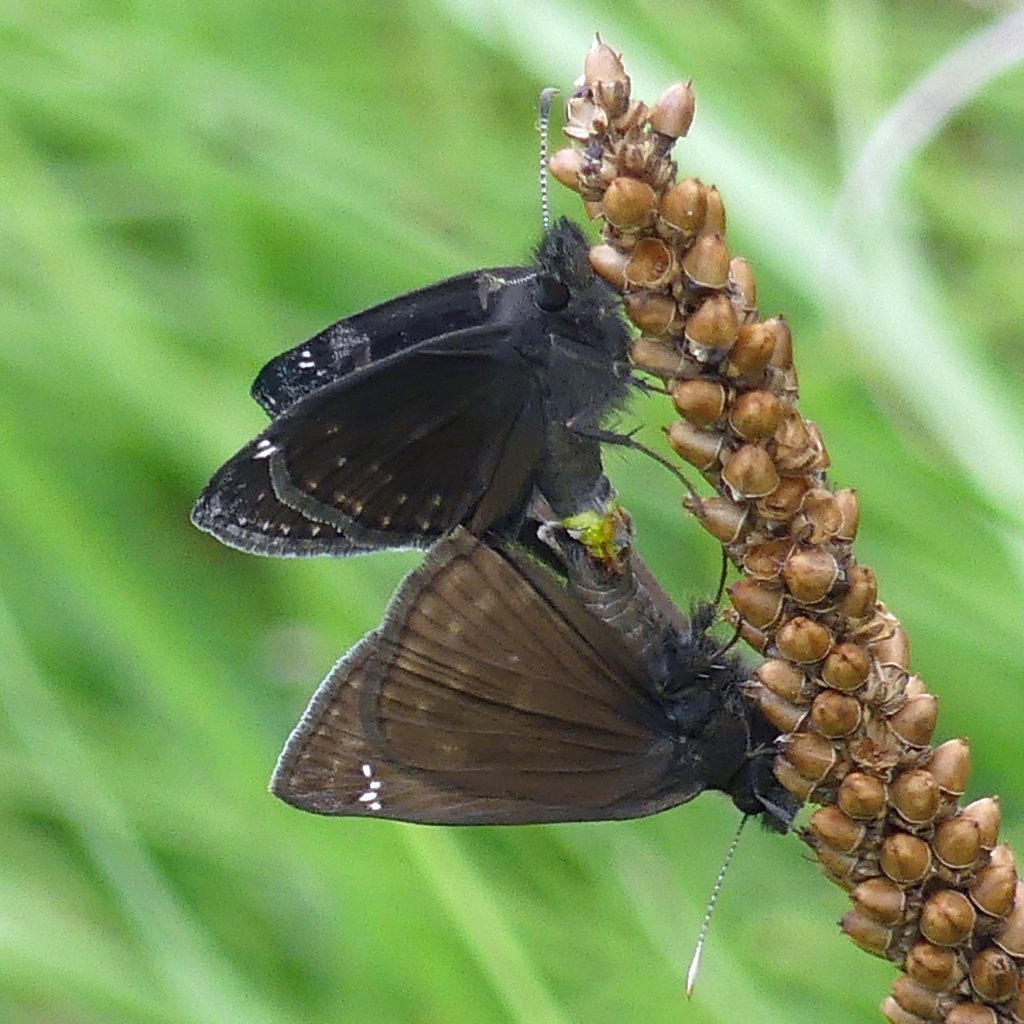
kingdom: Animalia
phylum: Arthropoda
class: Insecta
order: Lepidoptera
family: Hesperiidae
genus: Gesta
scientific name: Gesta
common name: Wild Indigo Duskywing
